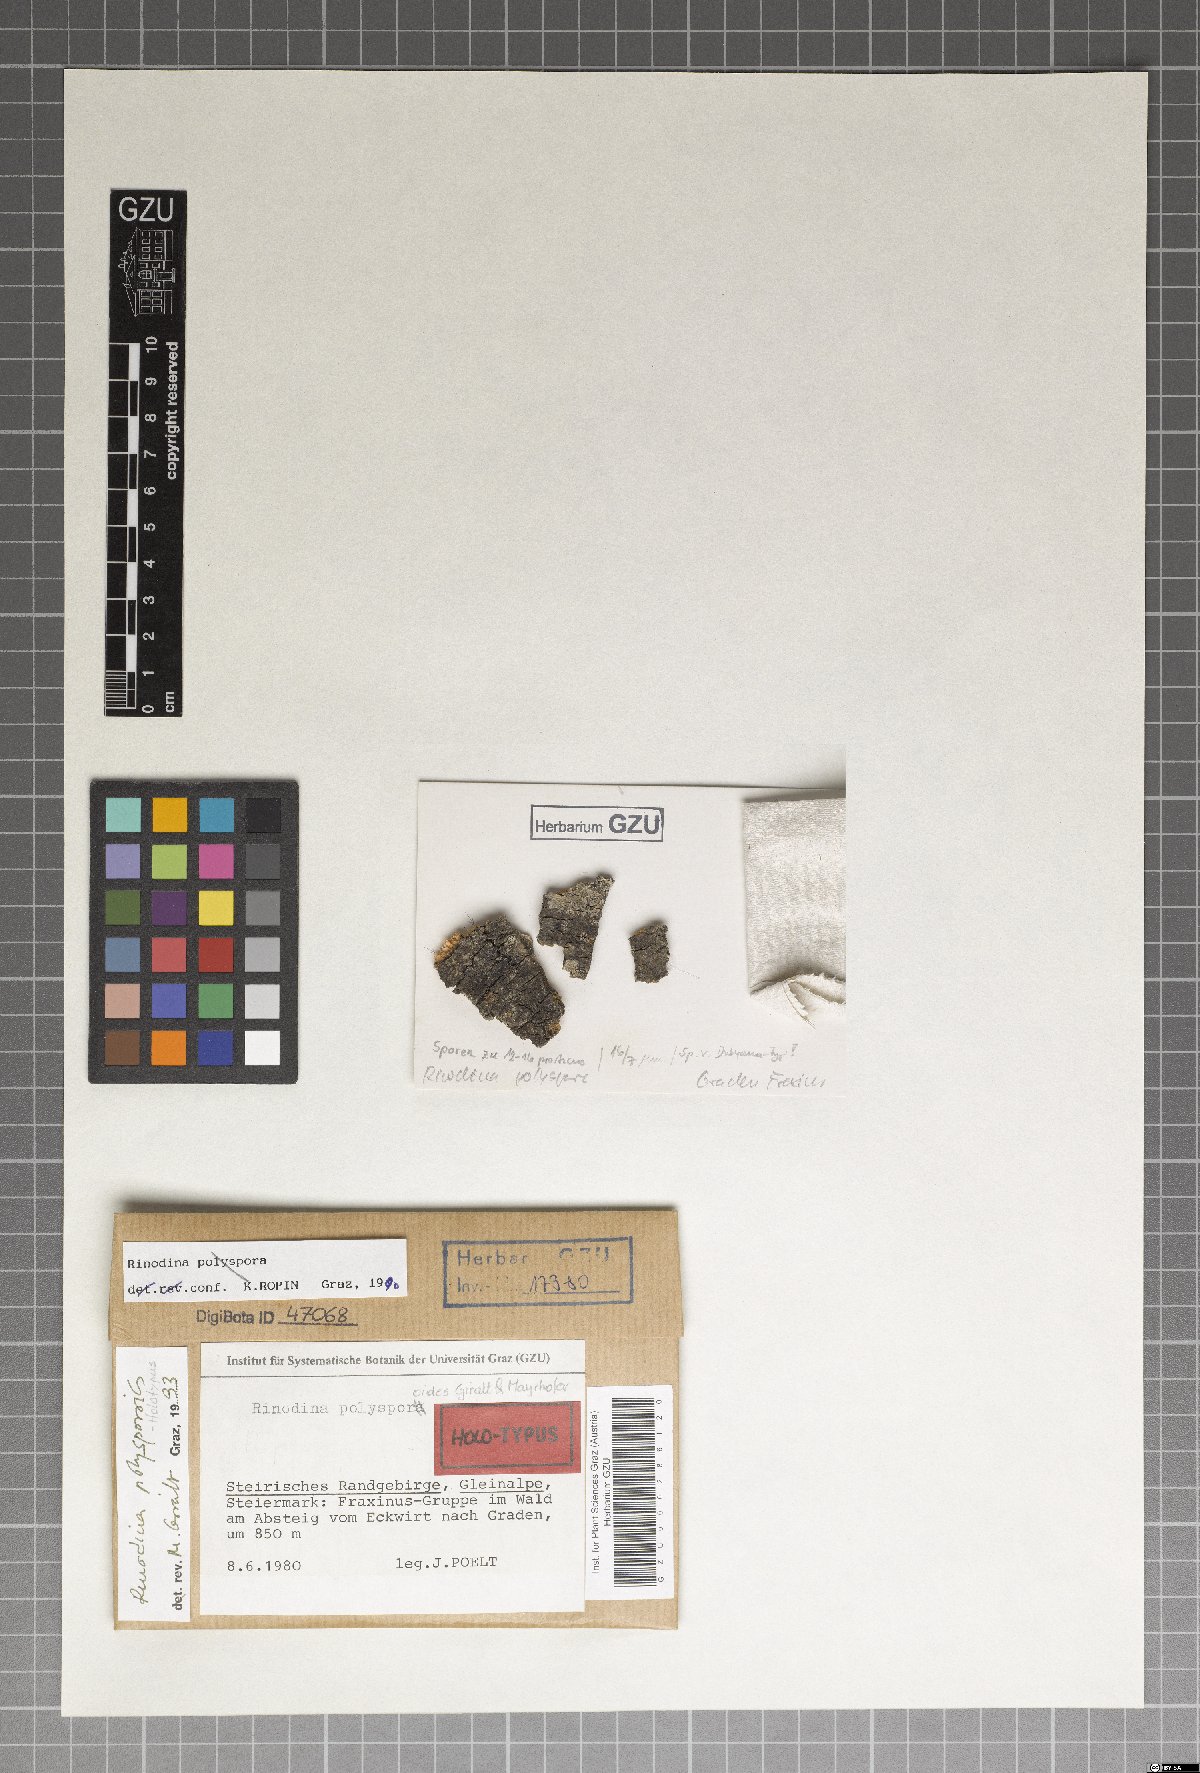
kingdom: Fungi
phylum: Ascomycota
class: Lecanoromycetes
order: Caliciales
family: Physciaceae
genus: Rinodina
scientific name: Rinodina polysporoides
